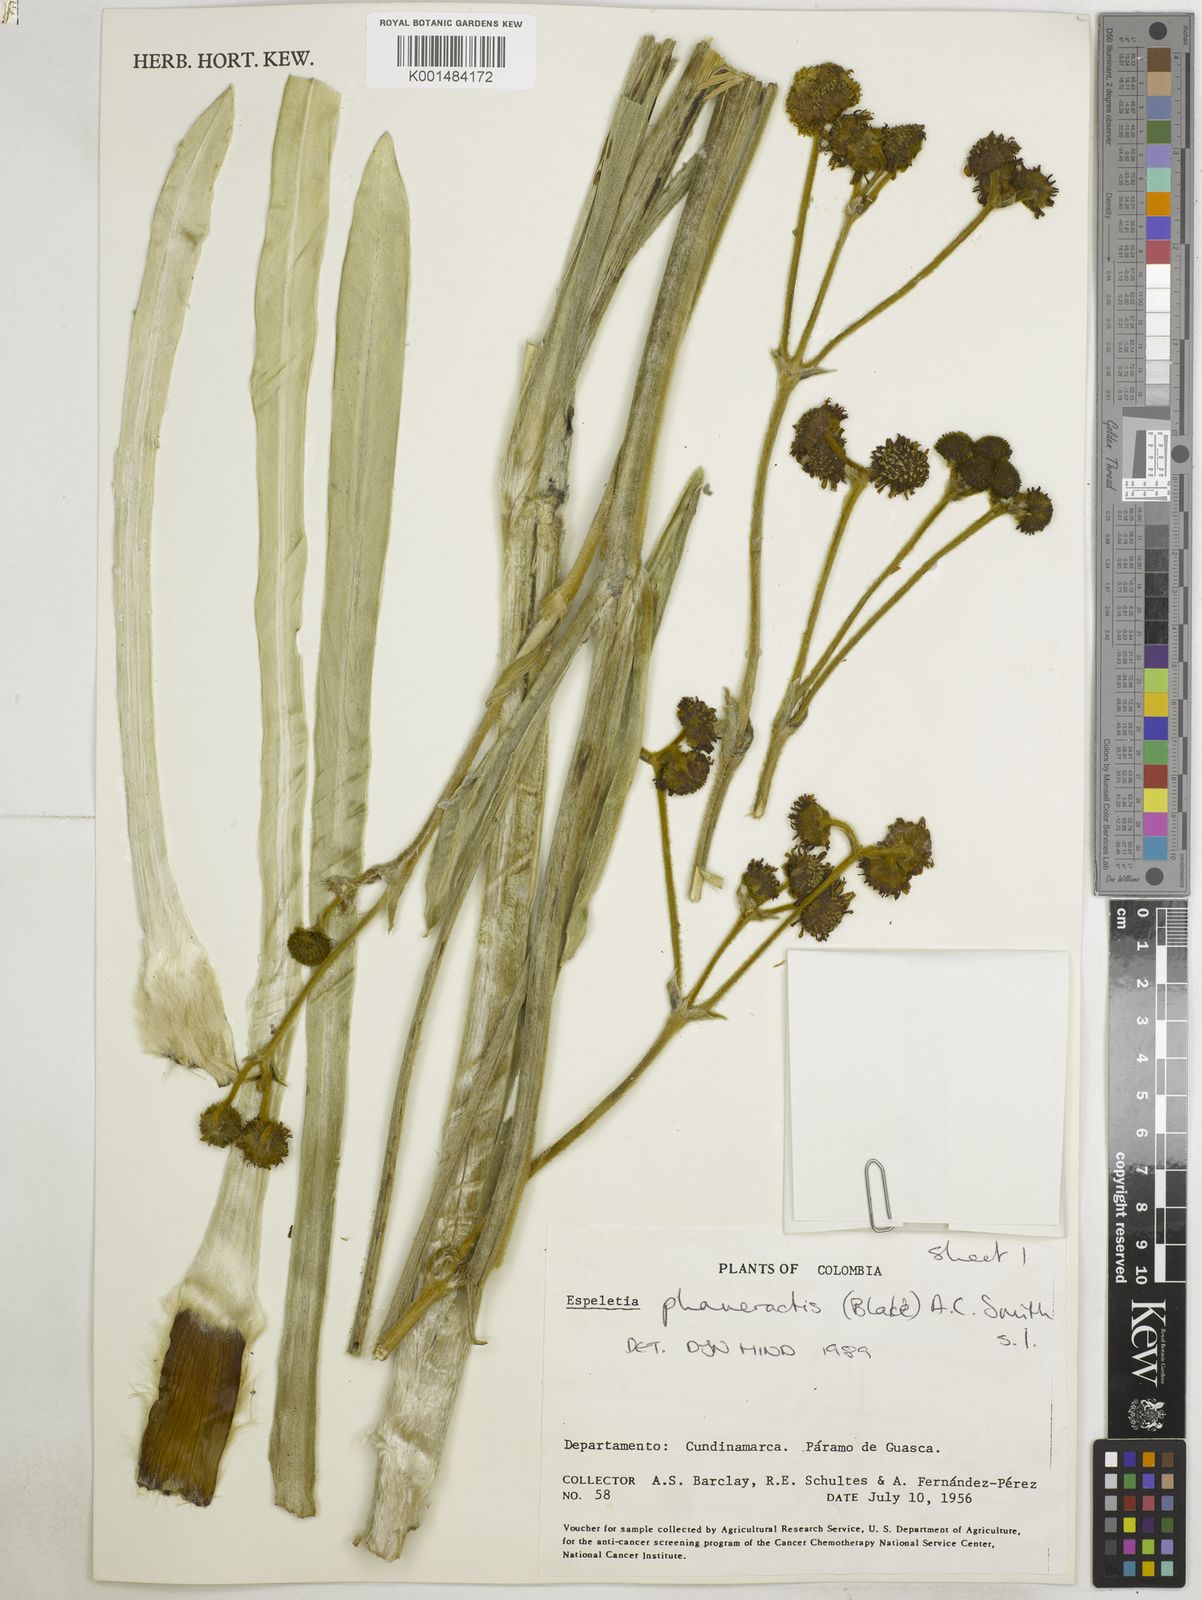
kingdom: Plantae
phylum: Tracheophyta
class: Magnoliopsida
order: Asterales
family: Asteraceae
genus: Espeletia
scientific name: Espeletia argentea
